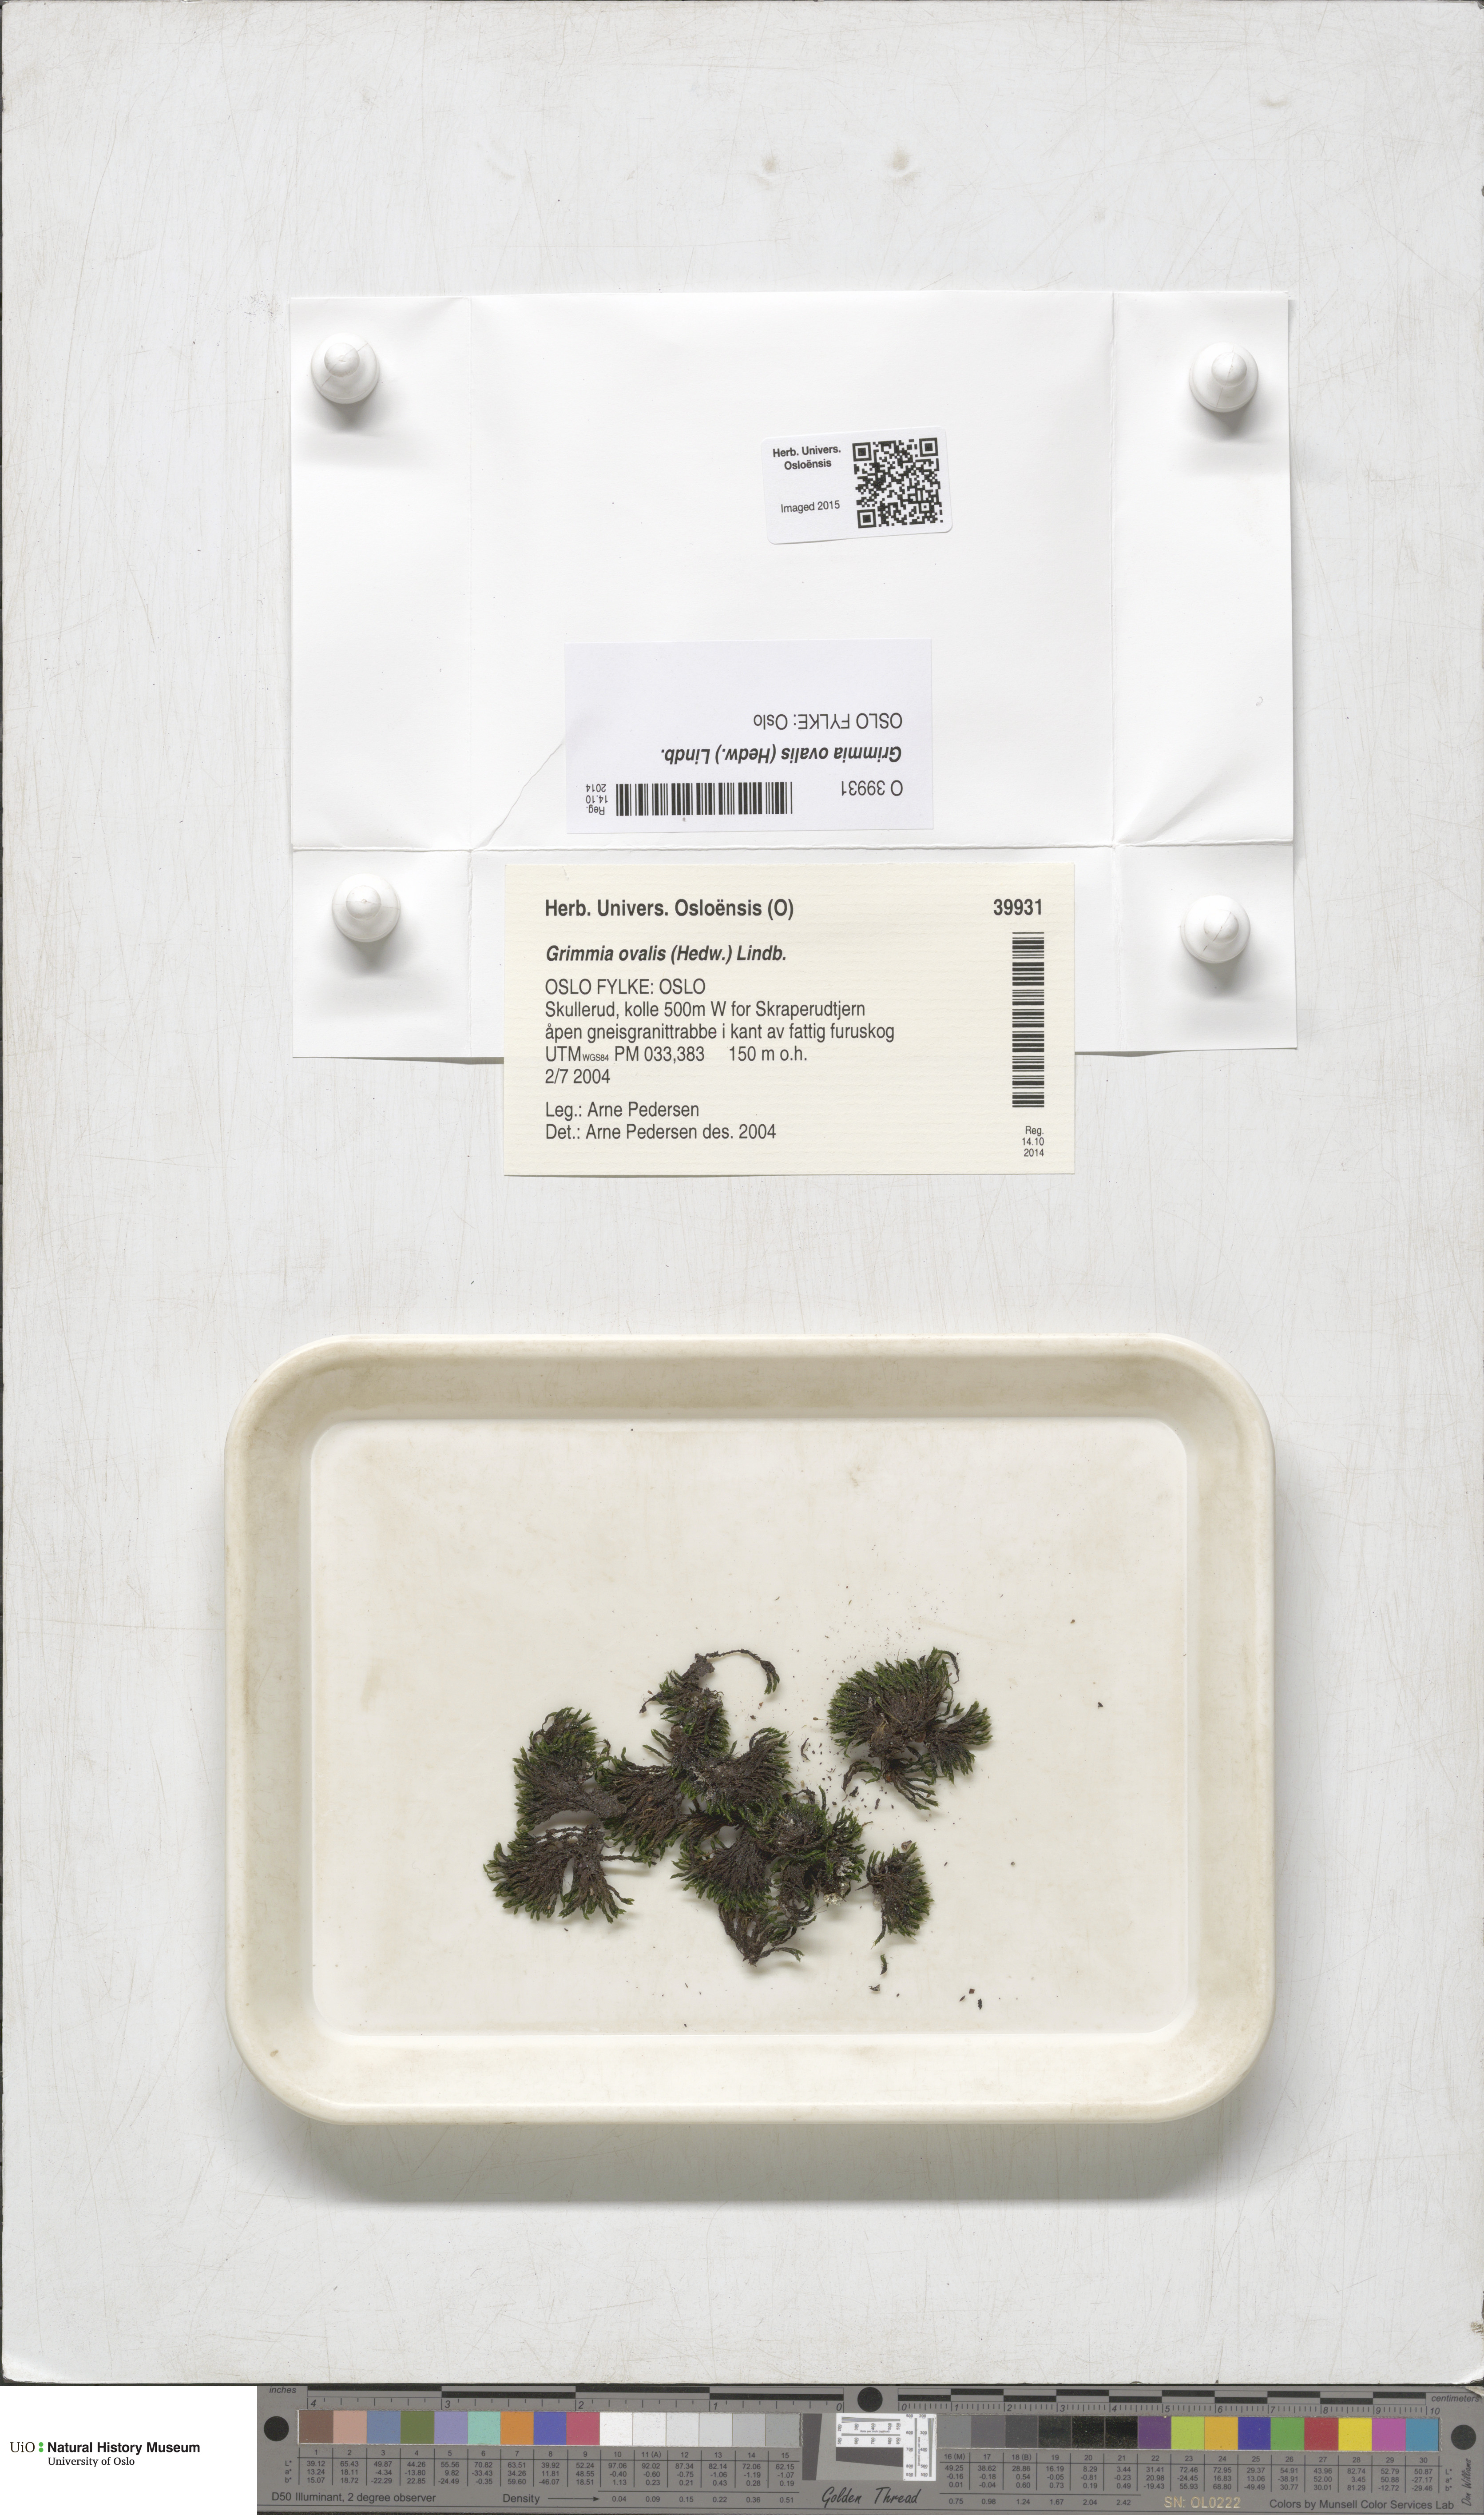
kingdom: Plantae
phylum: Bryophyta
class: Bryopsida
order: Grimmiales
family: Grimmiaceae
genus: Grimmia
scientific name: Grimmia ovalis
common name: Oval grimmia
